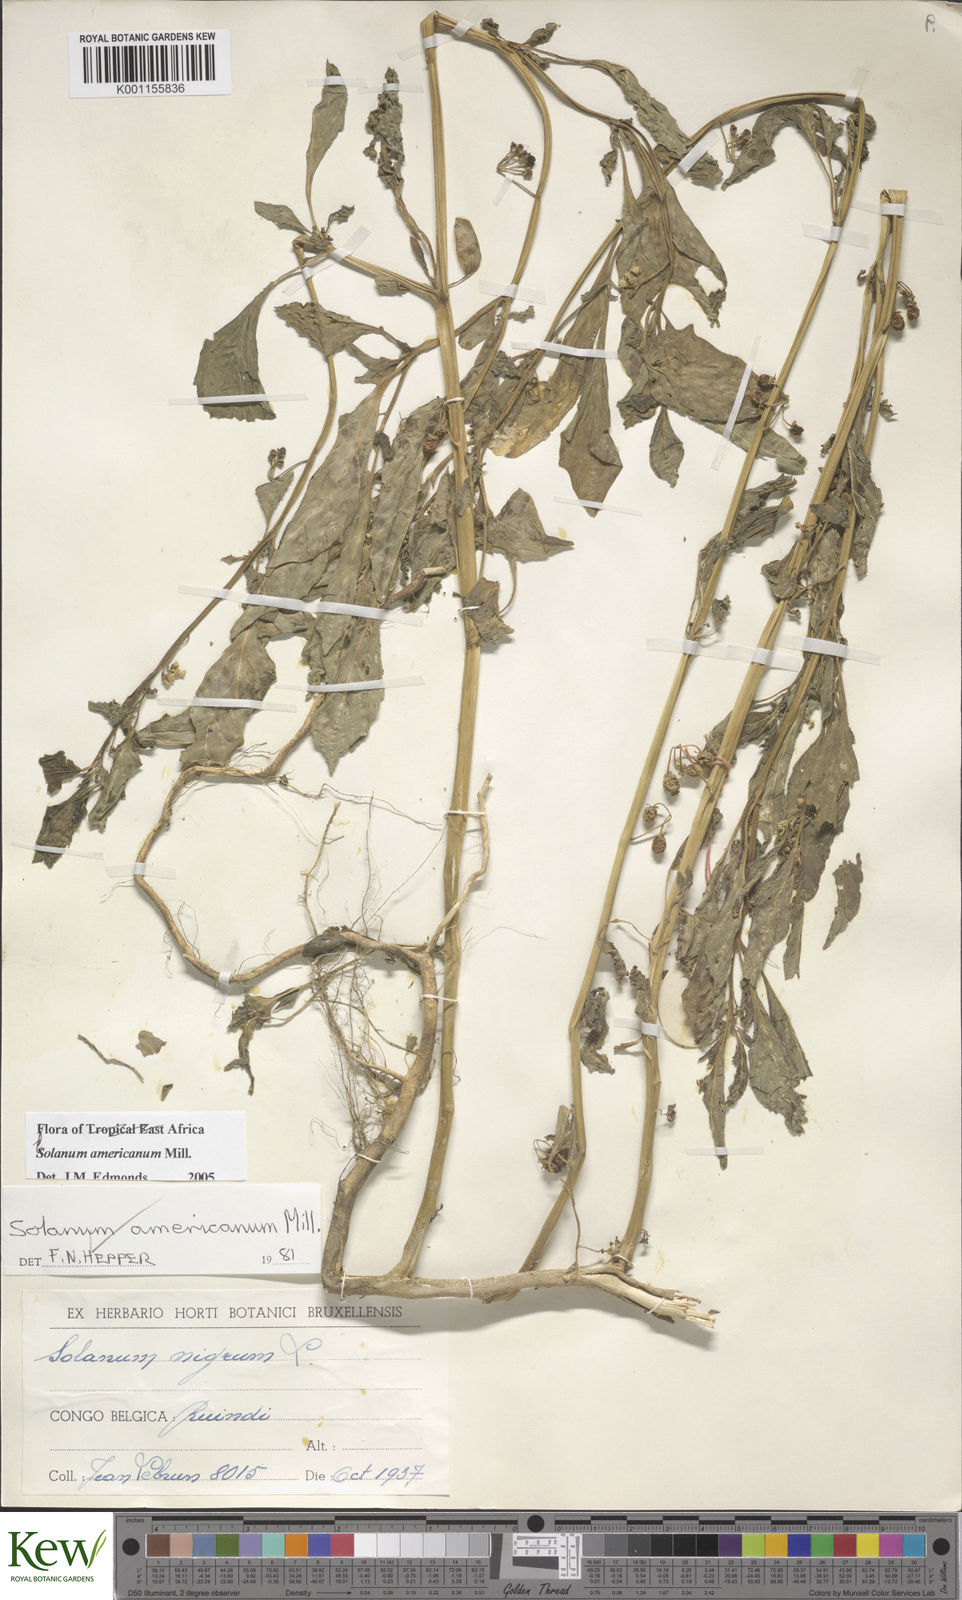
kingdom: Plantae
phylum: Tracheophyta
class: Magnoliopsida
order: Solanales
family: Solanaceae
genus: Solanum
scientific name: Solanum americanum
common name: American black nightshade
